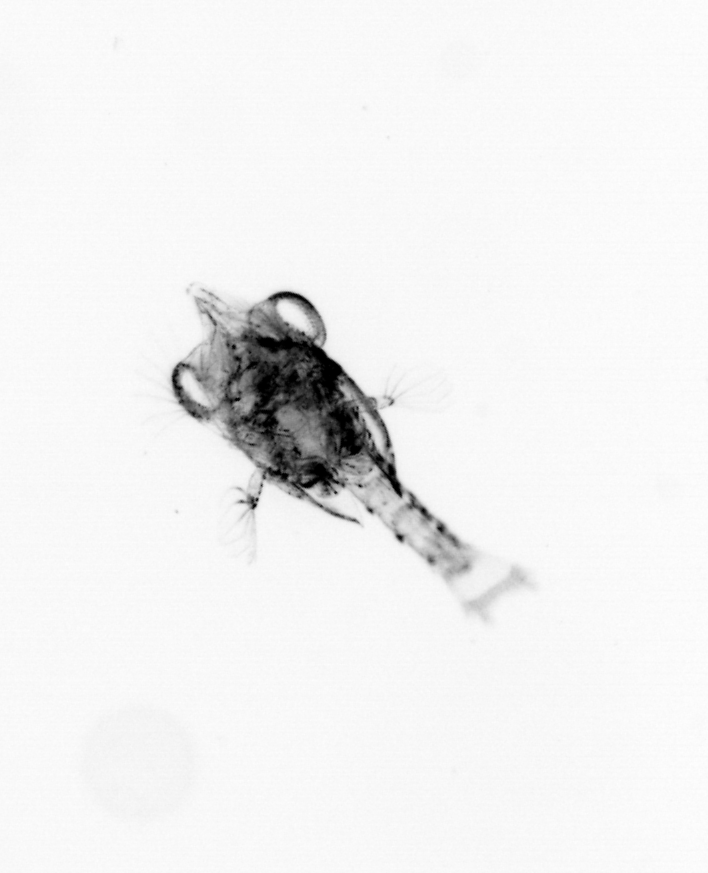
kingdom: Animalia
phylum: Arthropoda
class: Malacostraca
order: Decapoda
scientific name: Decapoda
